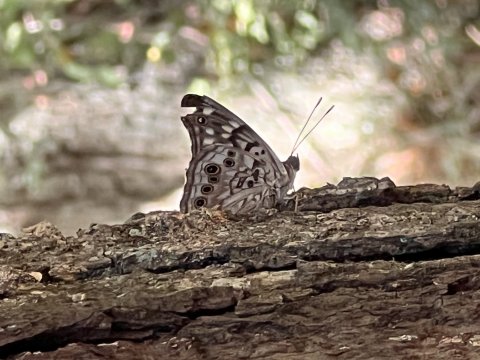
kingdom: Animalia
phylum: Arthropoda
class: Insecta
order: Lepidoptera
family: Nymphalidae
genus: Asterocampa
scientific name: Asterocampa celtis
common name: Hackberry Emperor
